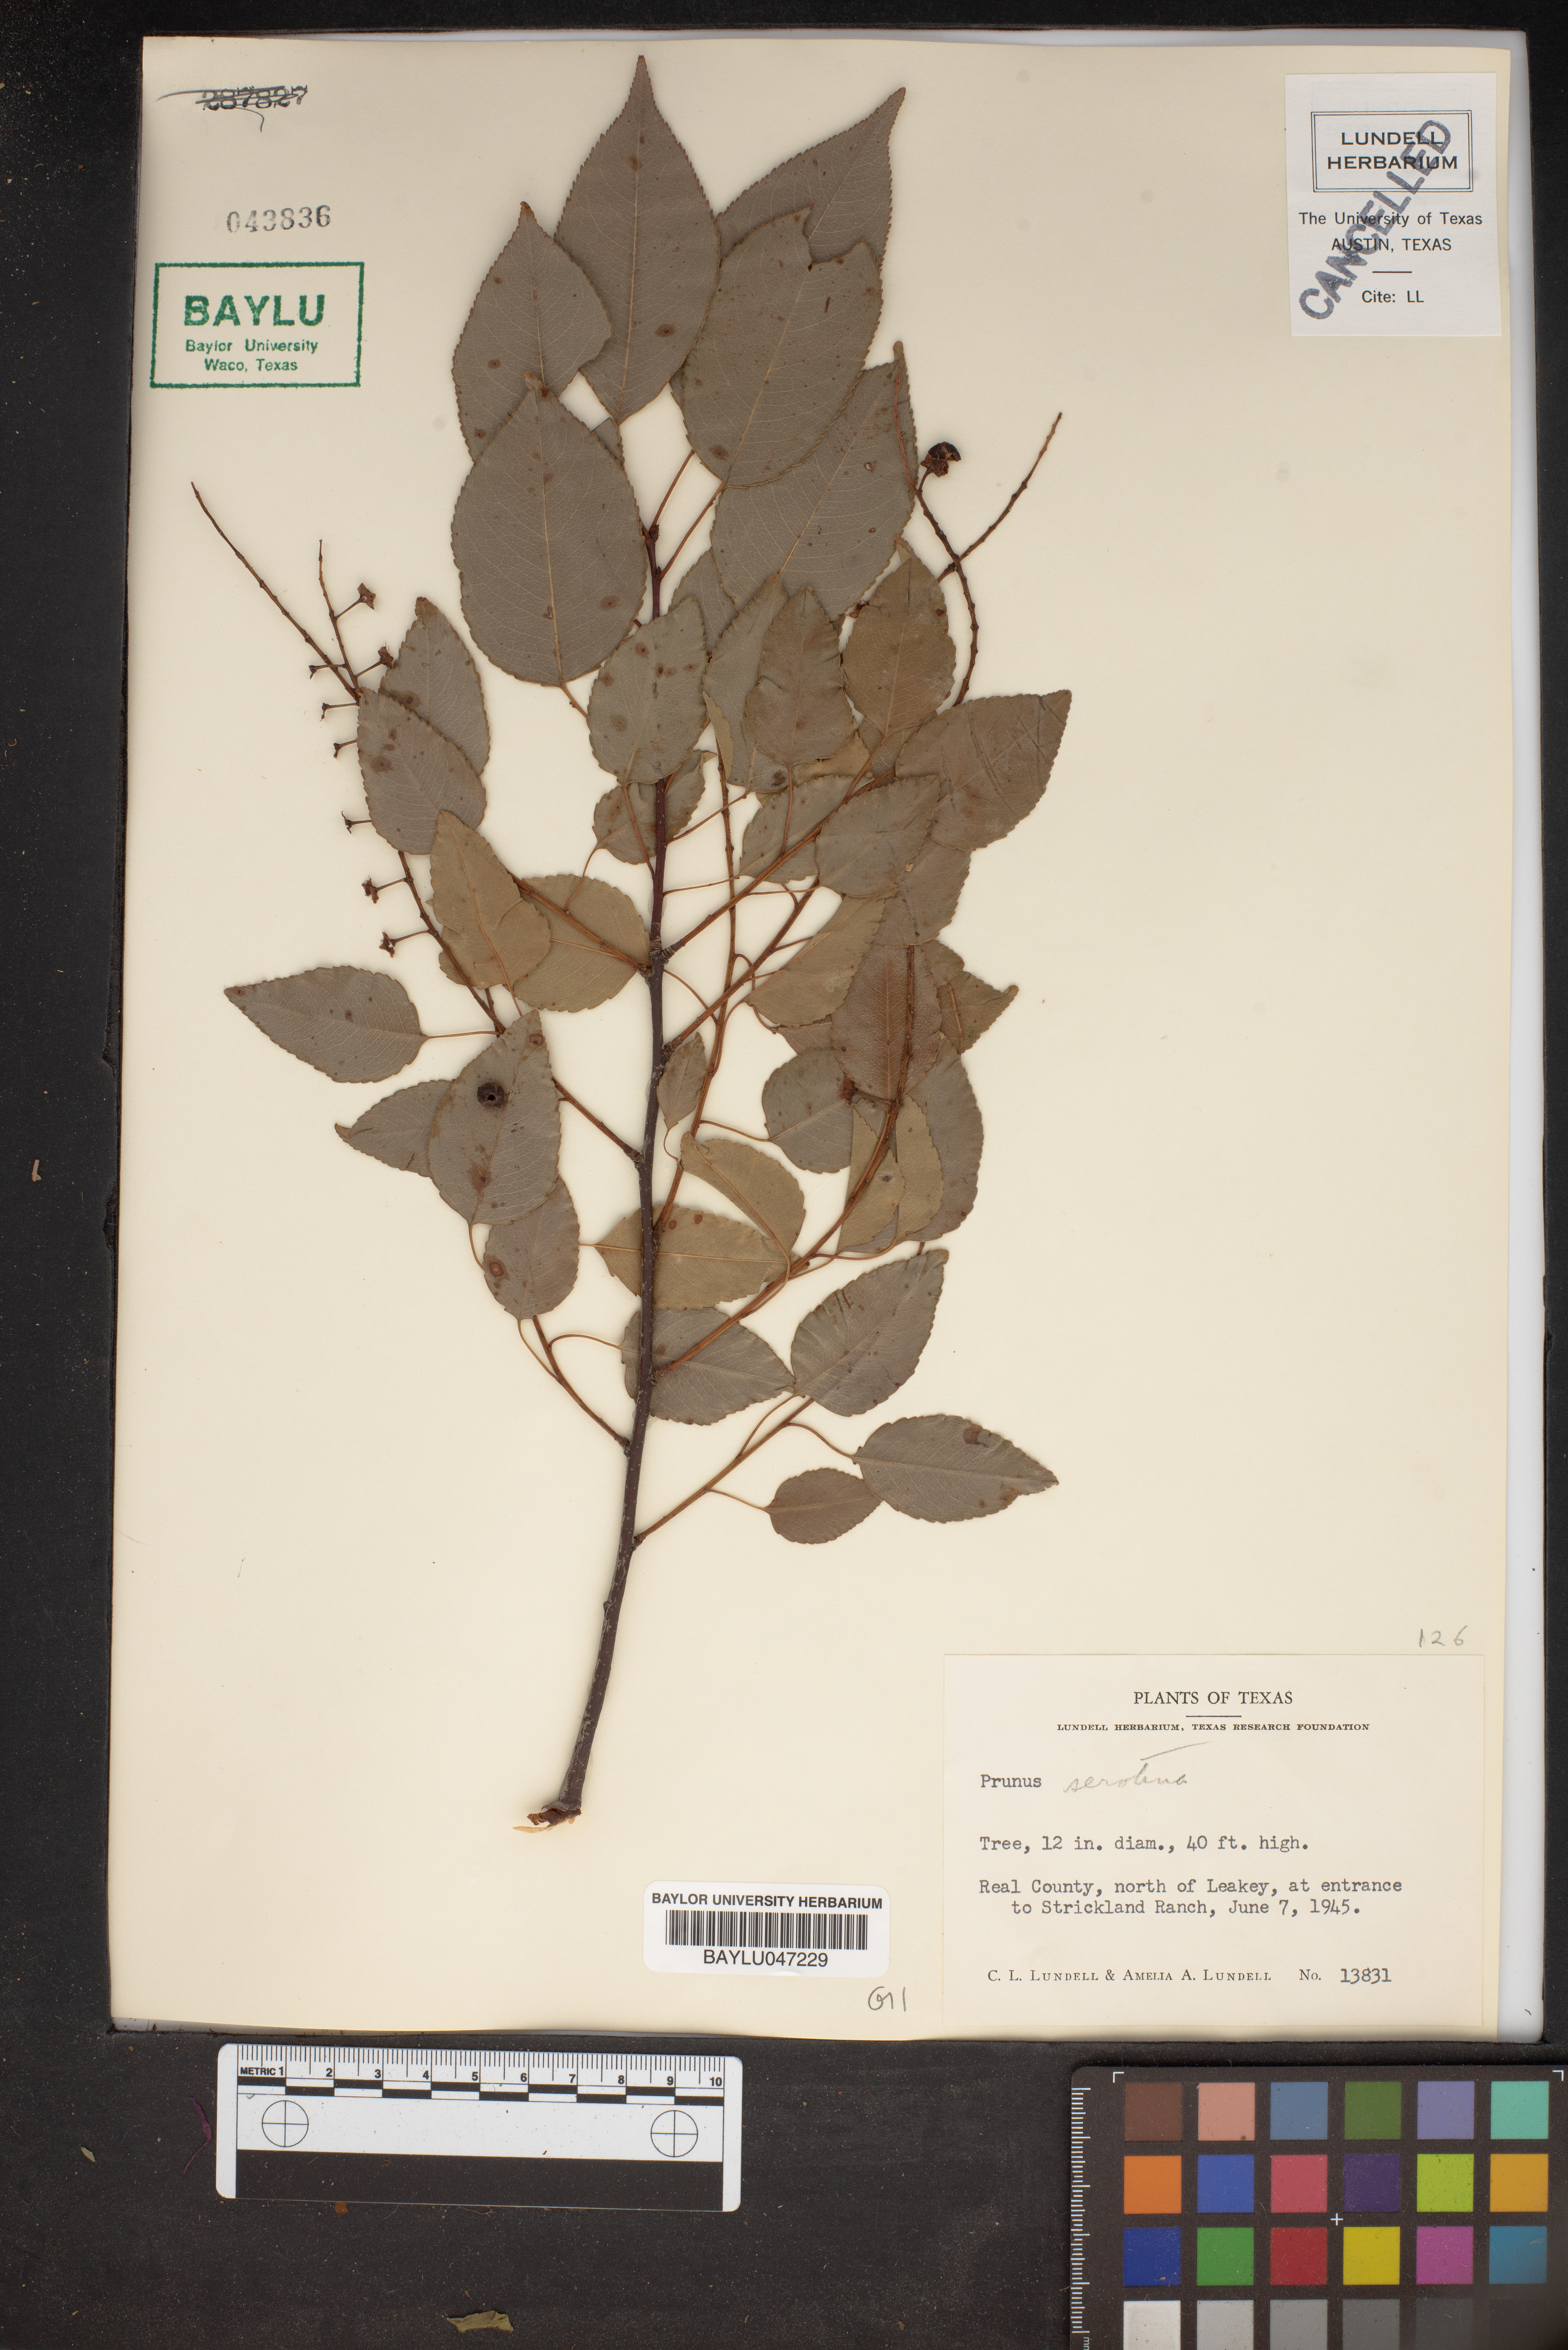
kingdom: Plantae
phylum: Tracheophyta
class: Magnoliopsida
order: Rosales
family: Rosaceae
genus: Prunus
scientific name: Prunus serotina
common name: Black cherry
